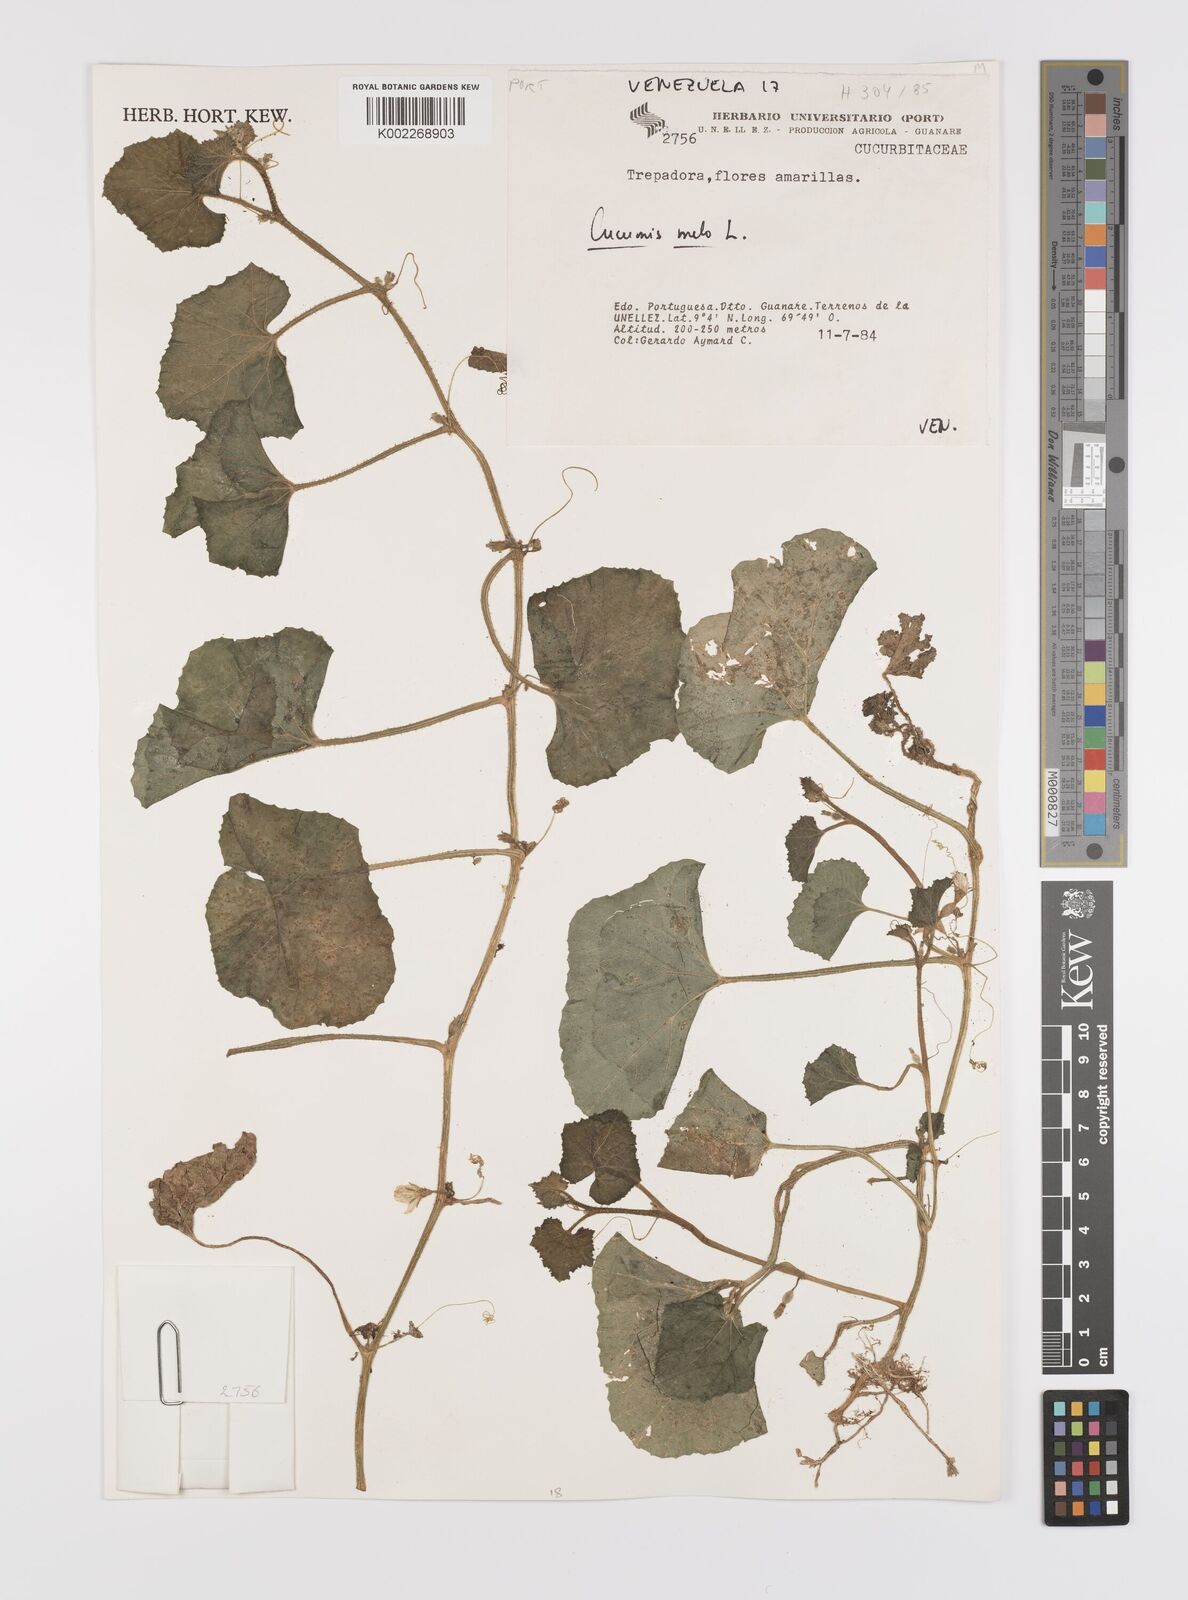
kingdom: Plantae
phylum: Tracheophyta
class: Magnoliopsida
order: Cucurbitales
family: Cucurbitaceae
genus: Cucumis
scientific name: Cucumis melo
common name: Melon
